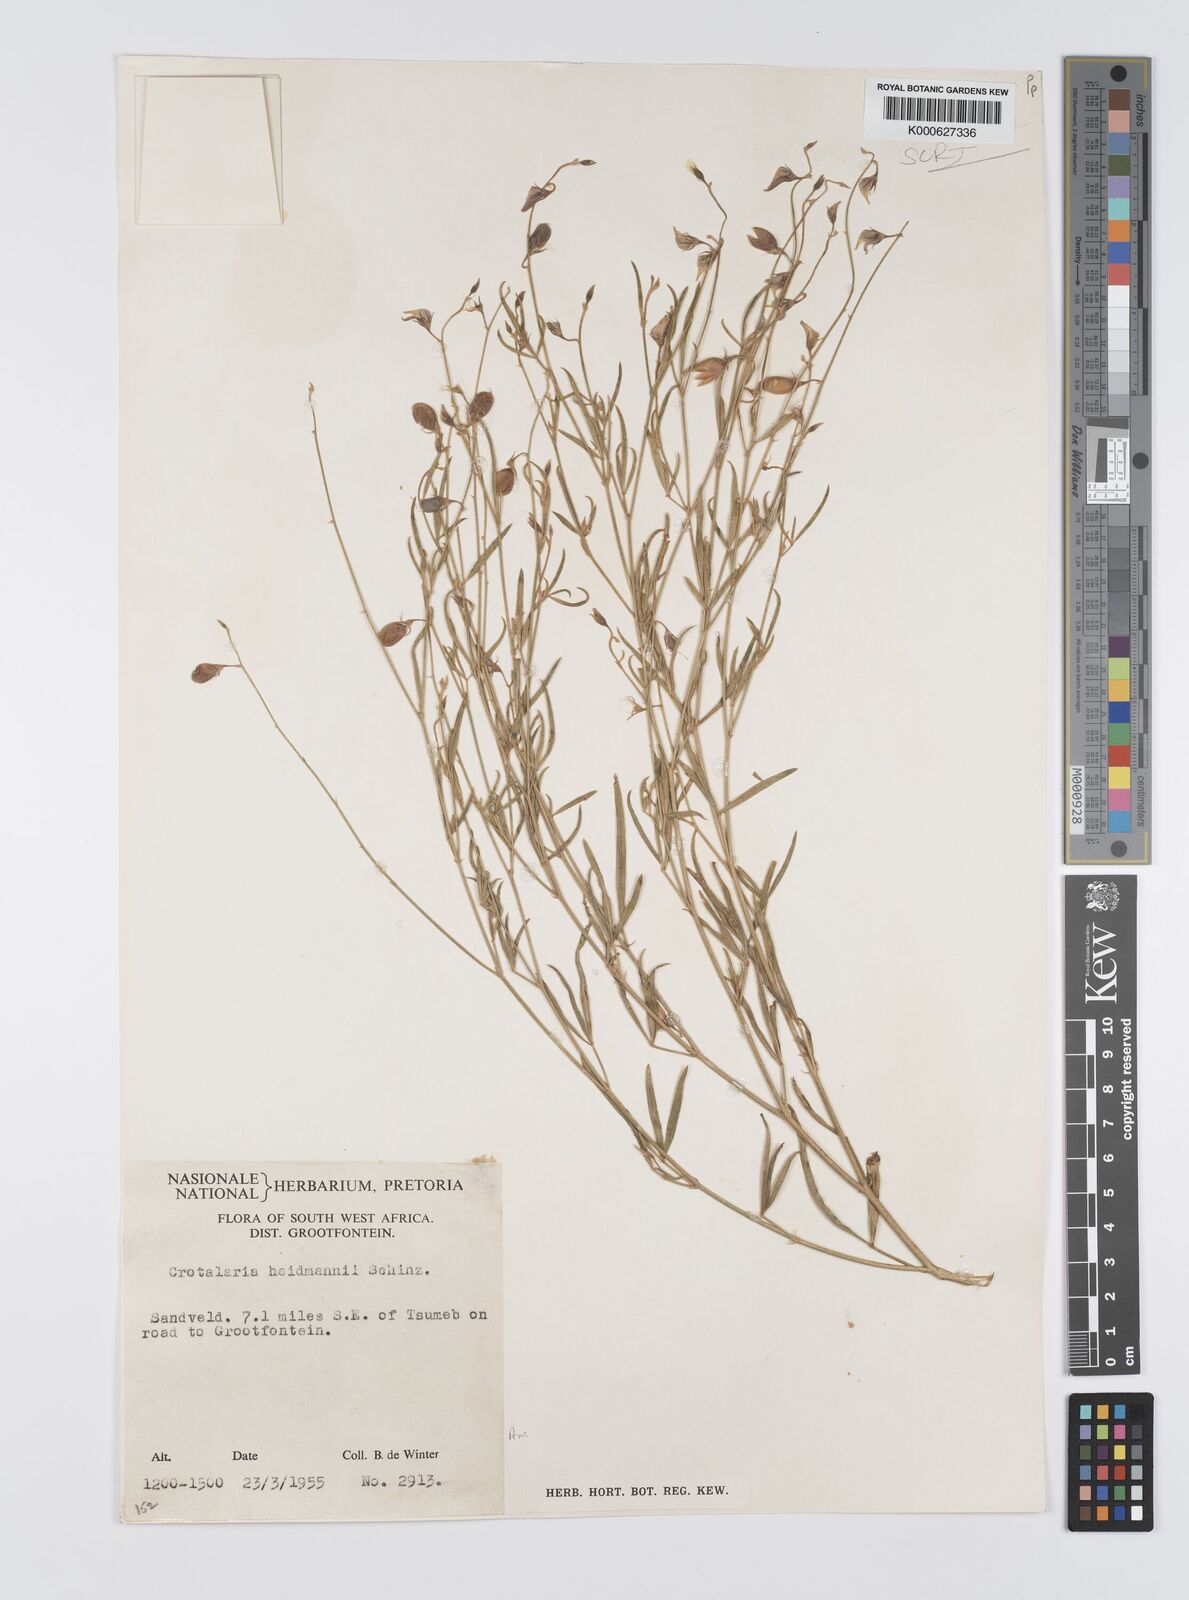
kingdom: Plantae
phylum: Tracheophyta
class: Magnoliopsida
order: Fabales
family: Fabaceae
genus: Crotalaria
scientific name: Crotalaria heidmannii
